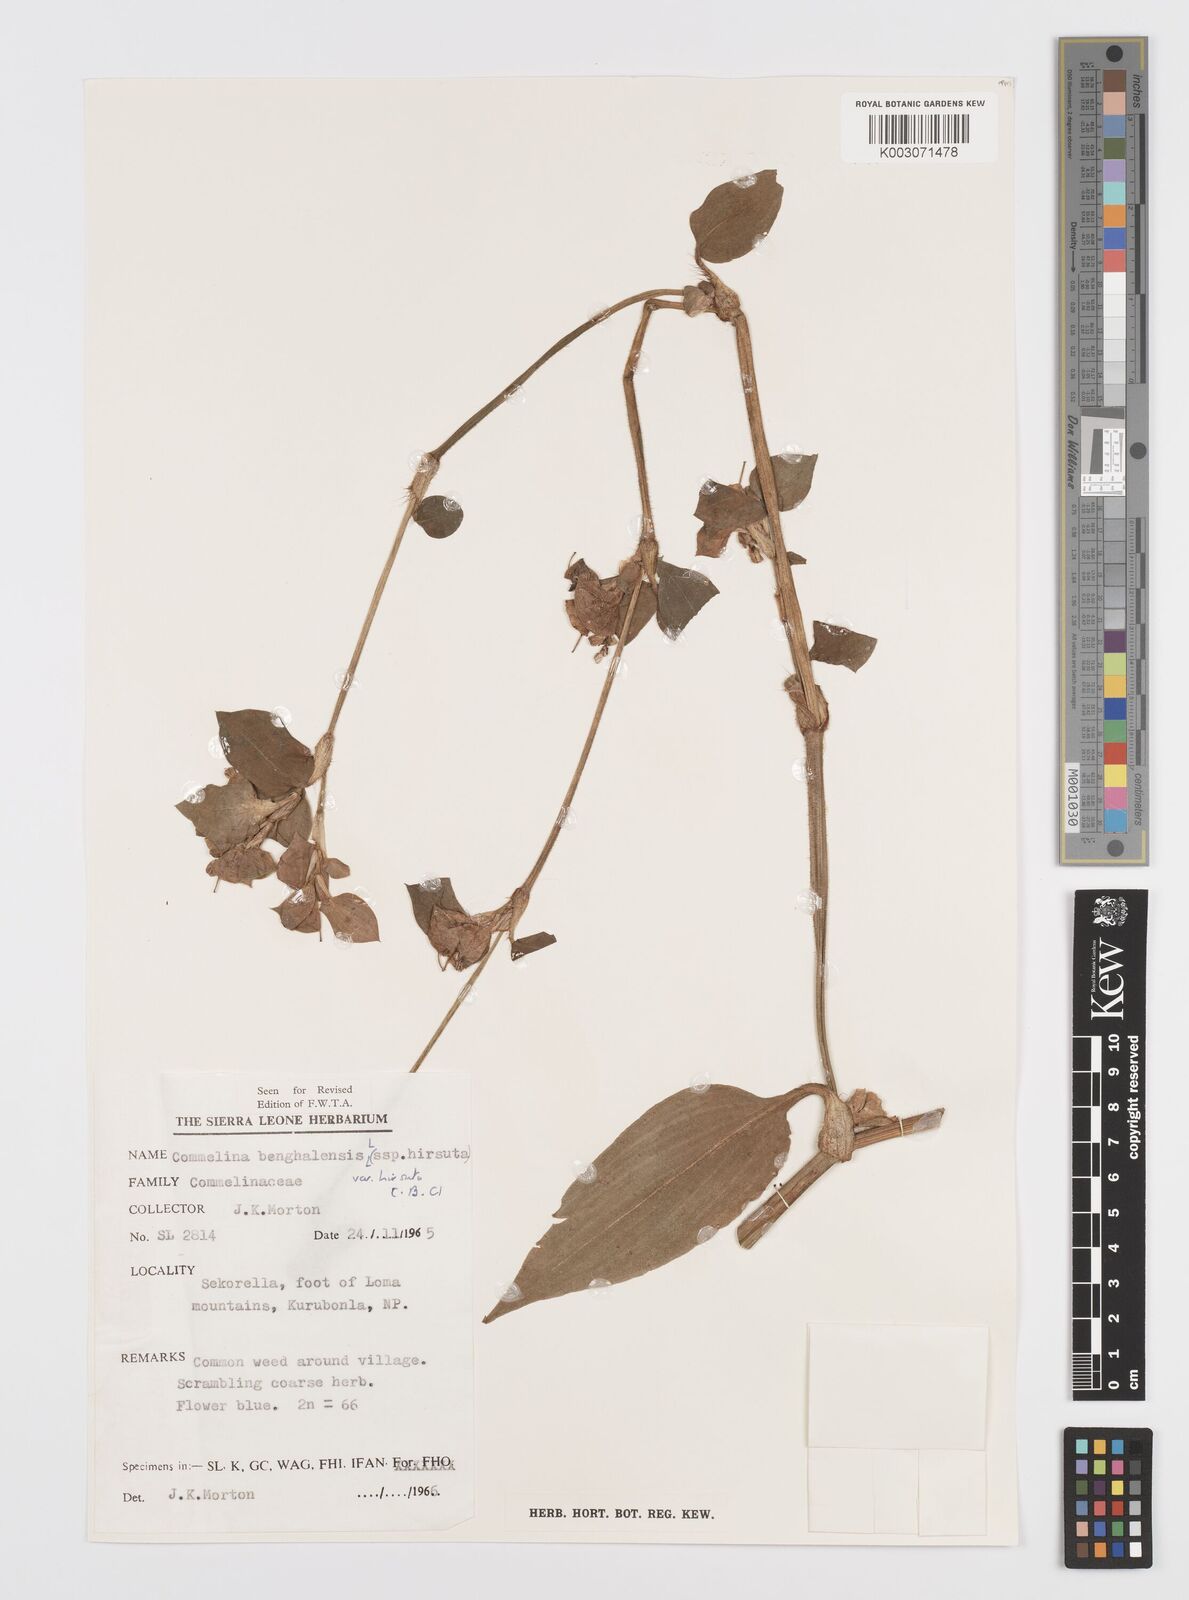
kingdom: Plantae
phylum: Tracheophyta
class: Liliopsida
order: Commelinales
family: Commelinaceae
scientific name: Commelinaceae
